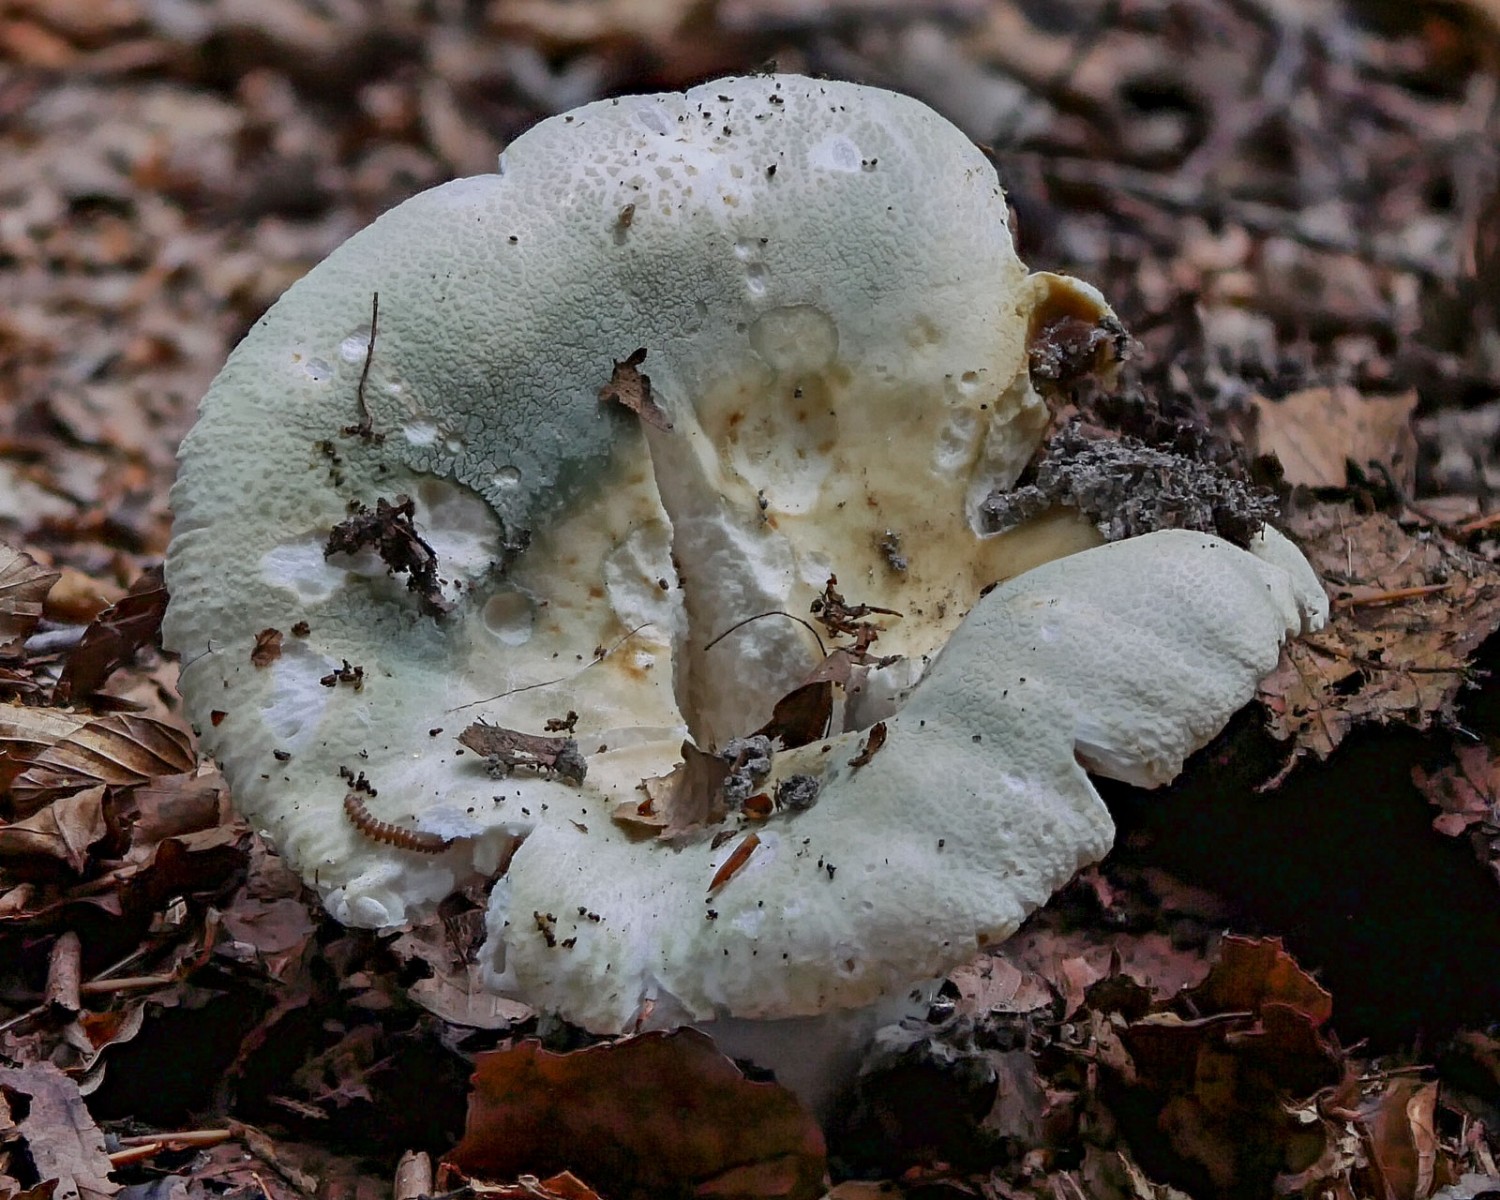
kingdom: Fungi
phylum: Basidiomycota
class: Agaricomycetes
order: Russulales
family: Russulaceae
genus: Russula
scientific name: Russula virescens
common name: spanskgrøn skørhat
